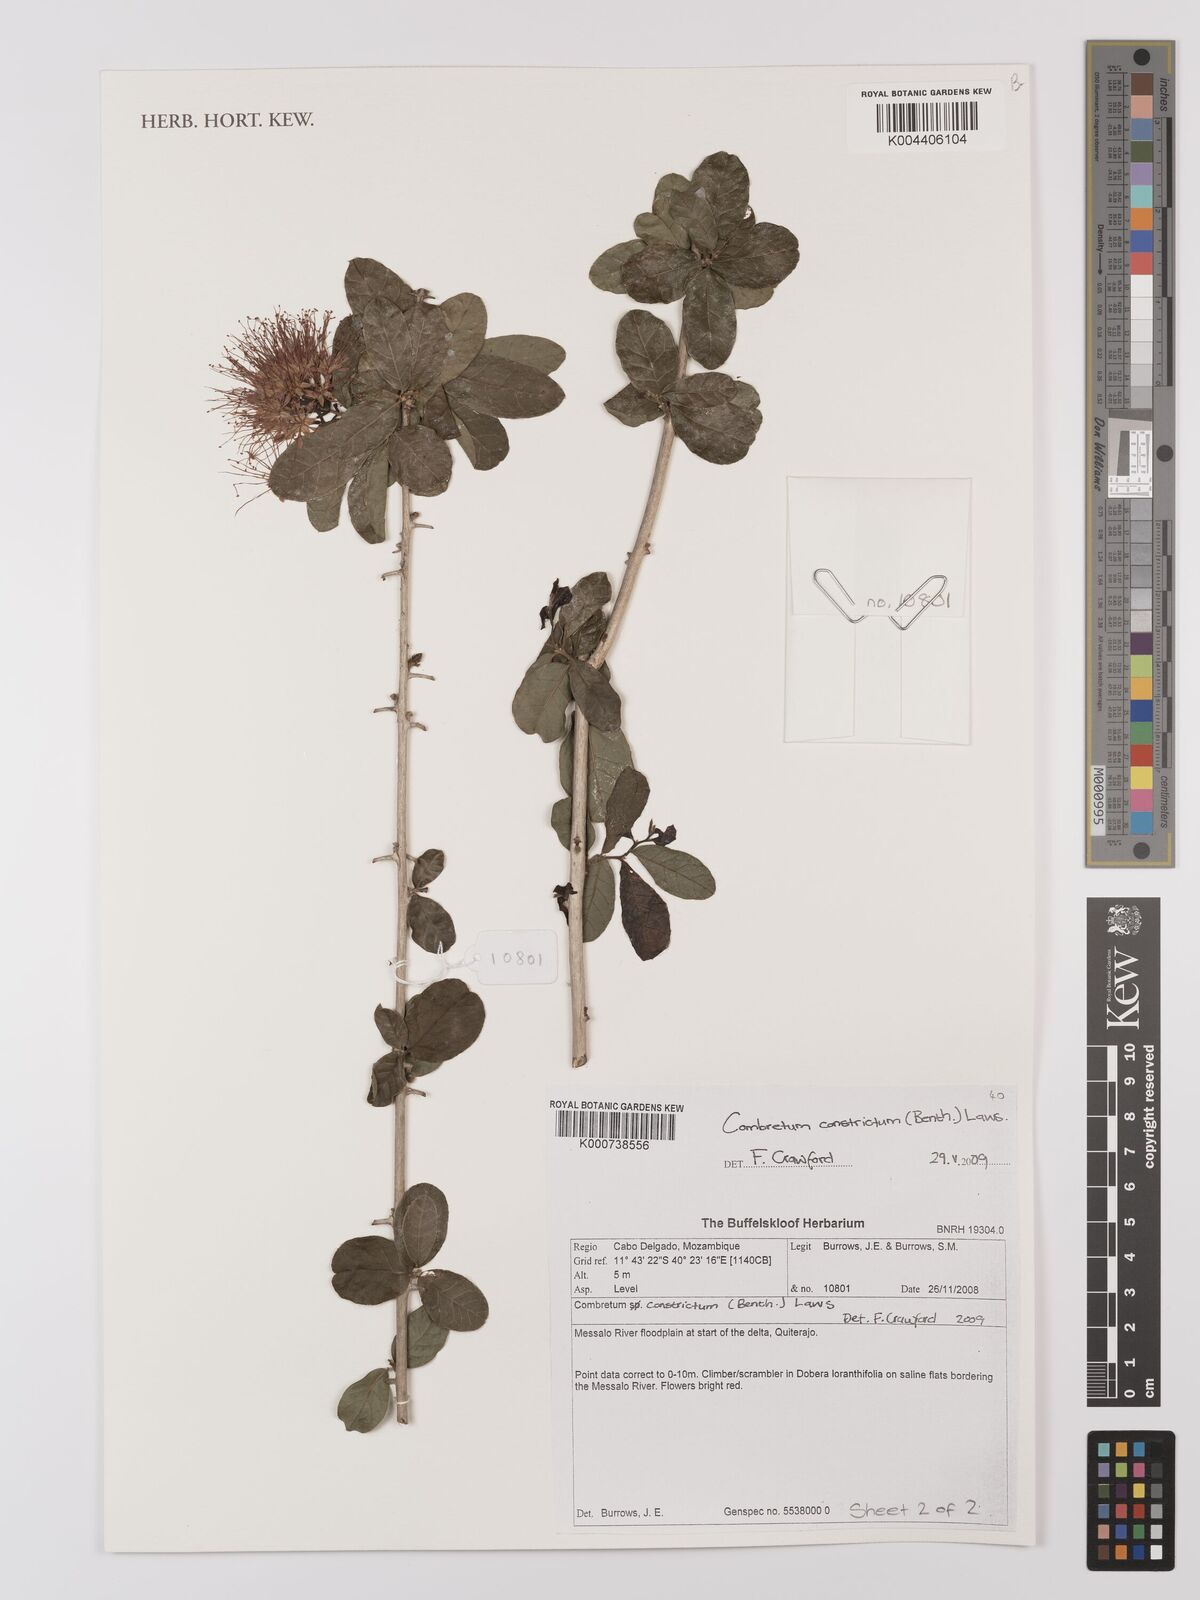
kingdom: Plantae
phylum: Tracheophyta
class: Magnoliopsida
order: Myrtales
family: Combretaceae
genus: Combretum
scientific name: Combretum constrictum
